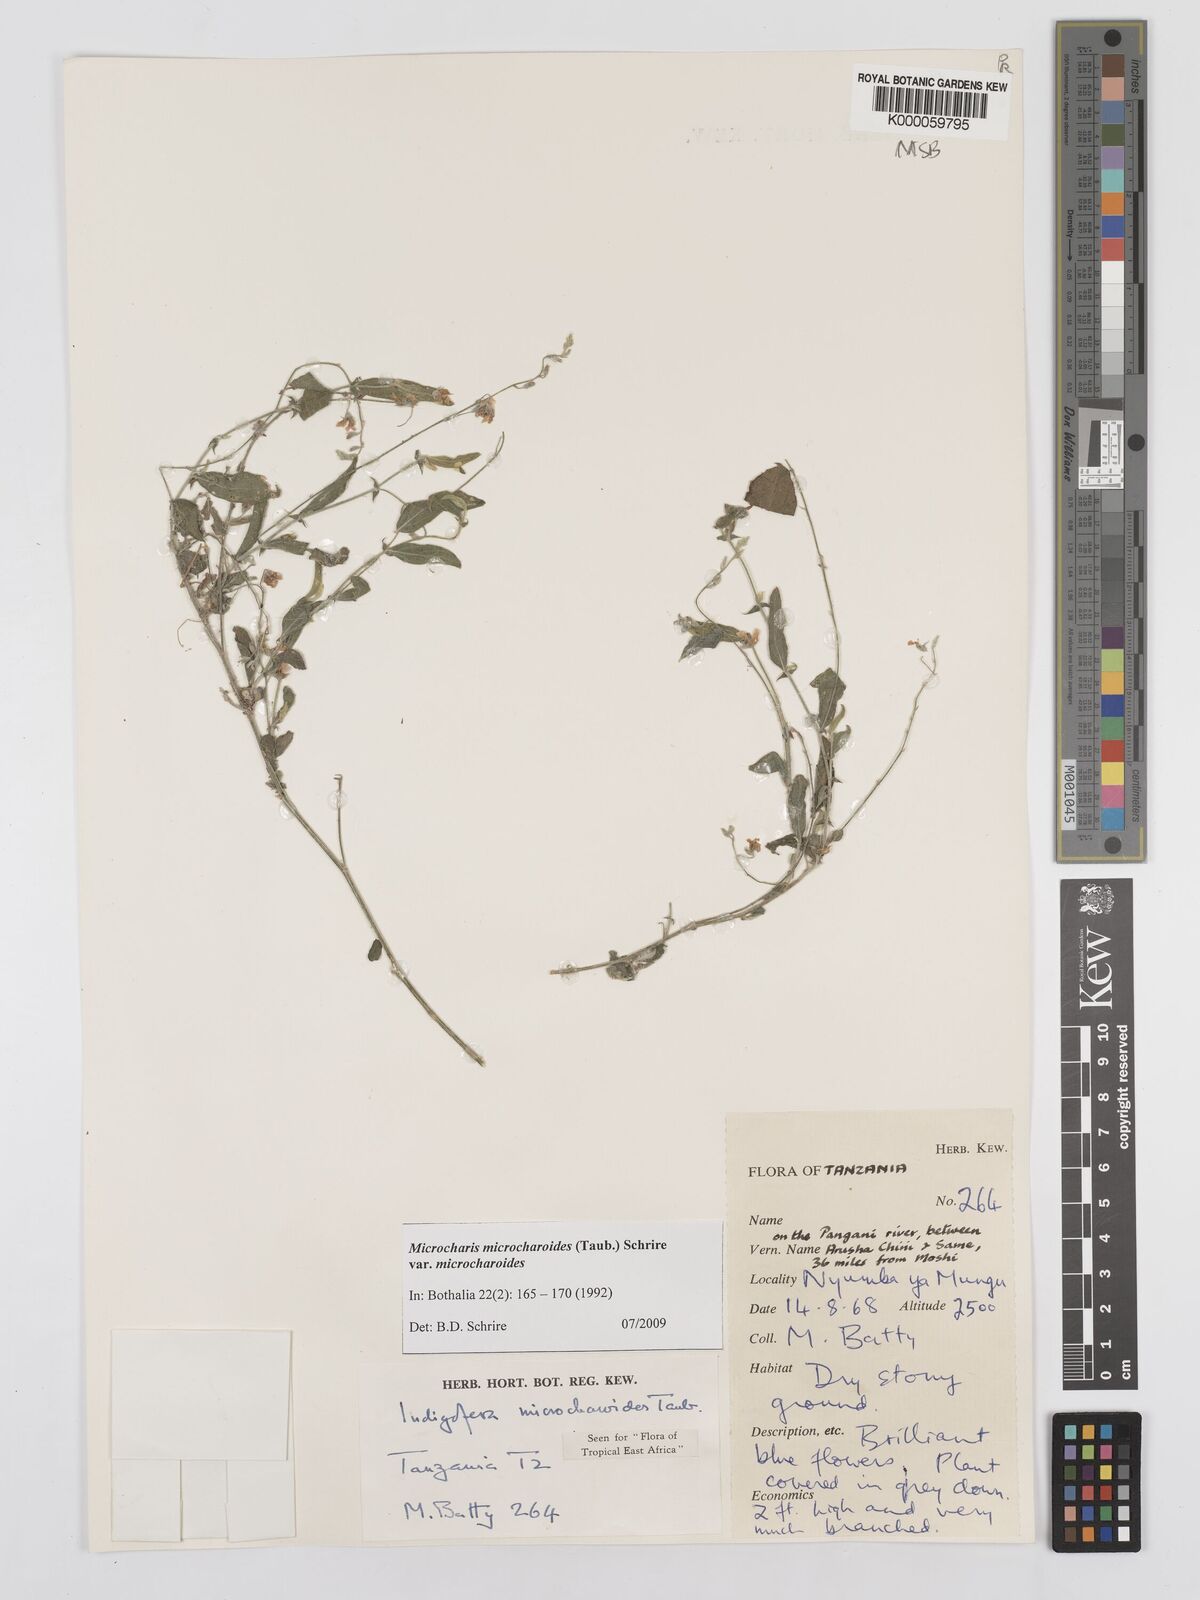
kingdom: Plantae
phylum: Tracheophyta
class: Magnoliopsida
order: Fabales
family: Fabaceae
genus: Microcharis
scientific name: Microcharis microcharoides
